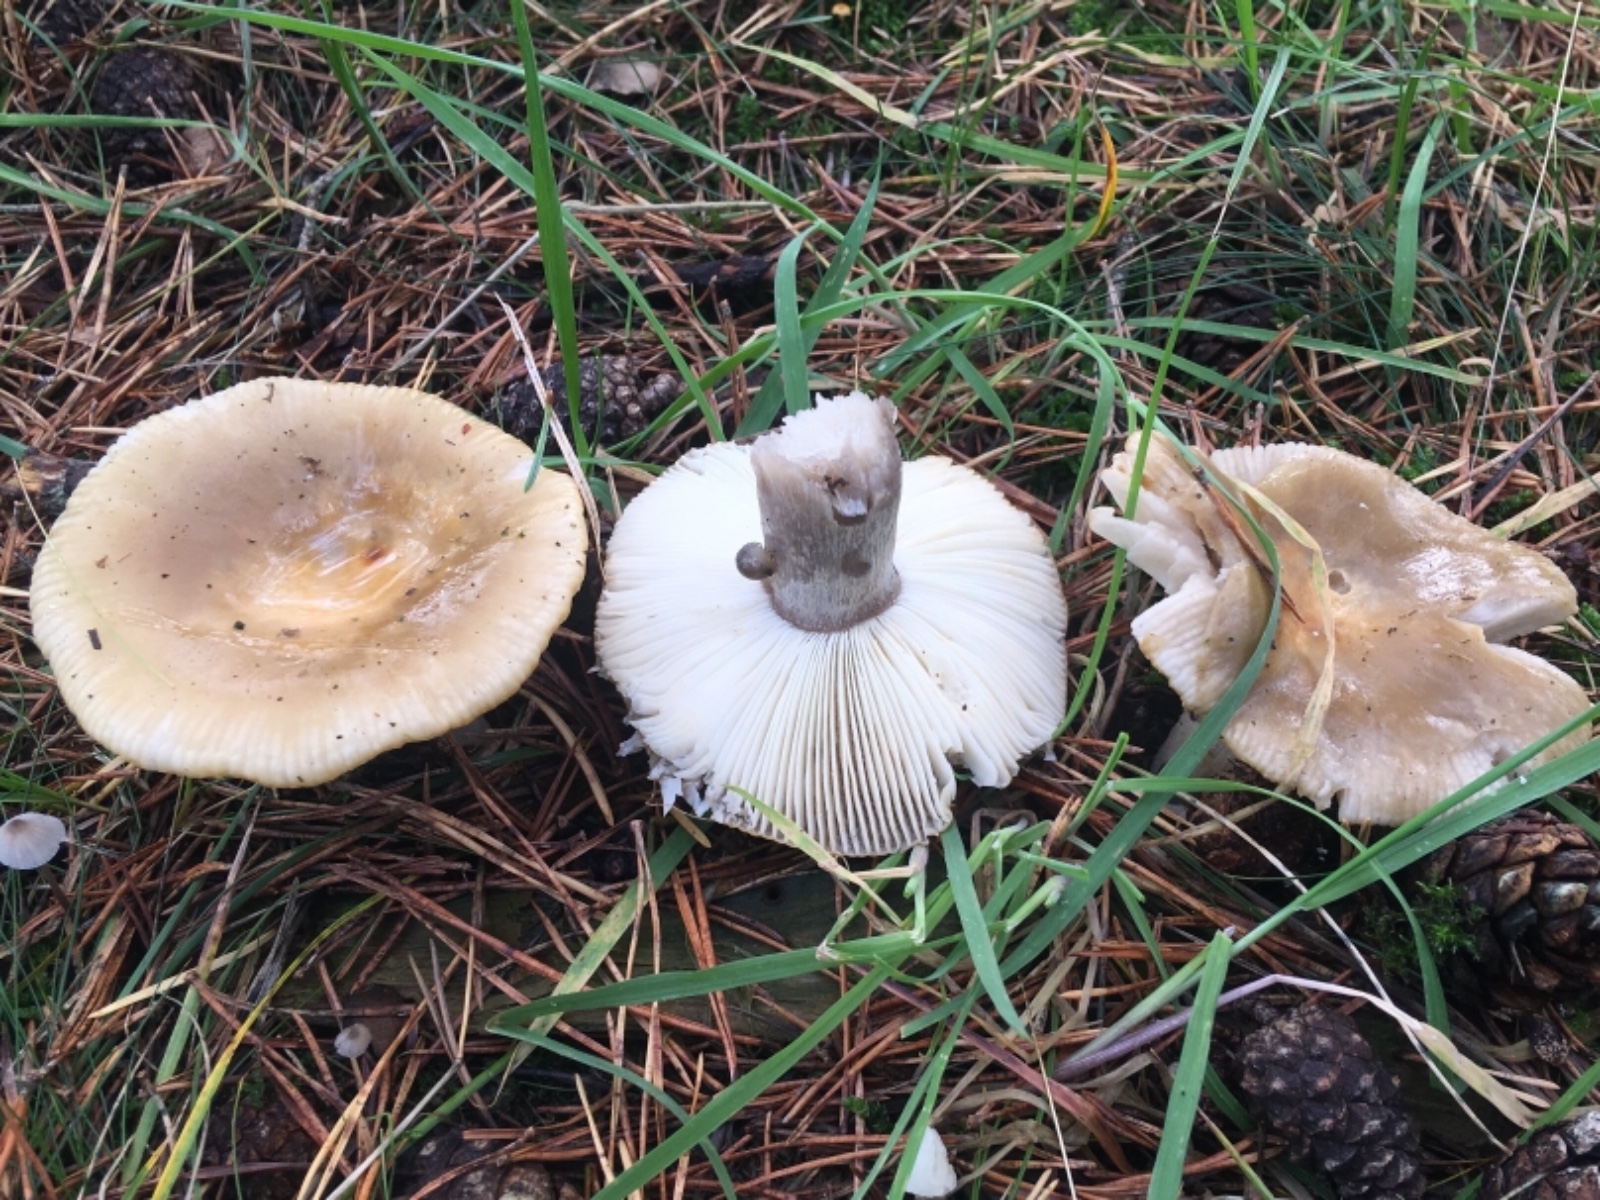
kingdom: Fungi
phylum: Basidiomycota
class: Agaricomycetes
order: Russulales
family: Russulaceae
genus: Russula
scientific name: Russula ochroleuca
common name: okkergul skørhat
